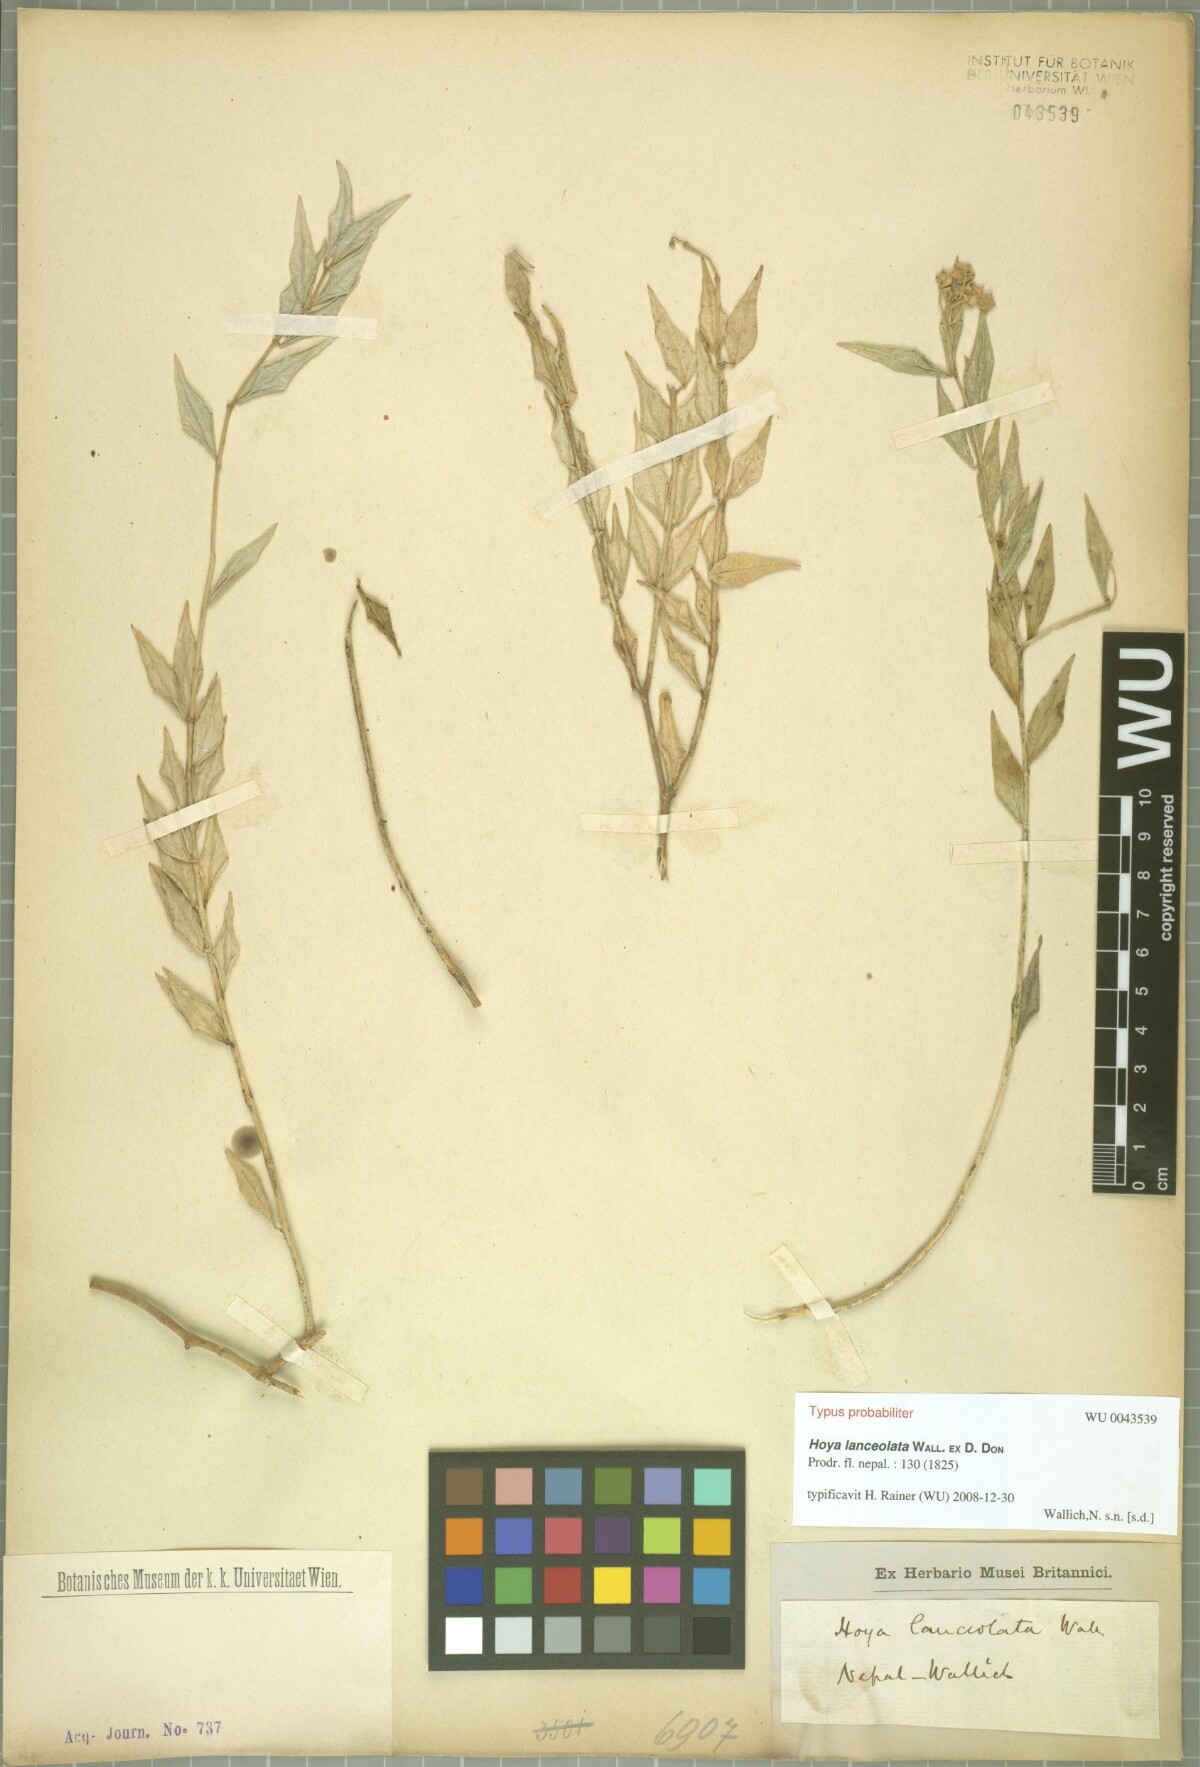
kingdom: Plantae
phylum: Tracheophyta
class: Magnoliopsida
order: Gentianales
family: Apocynaceae
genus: Hoya
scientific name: Hoya lanceolata
